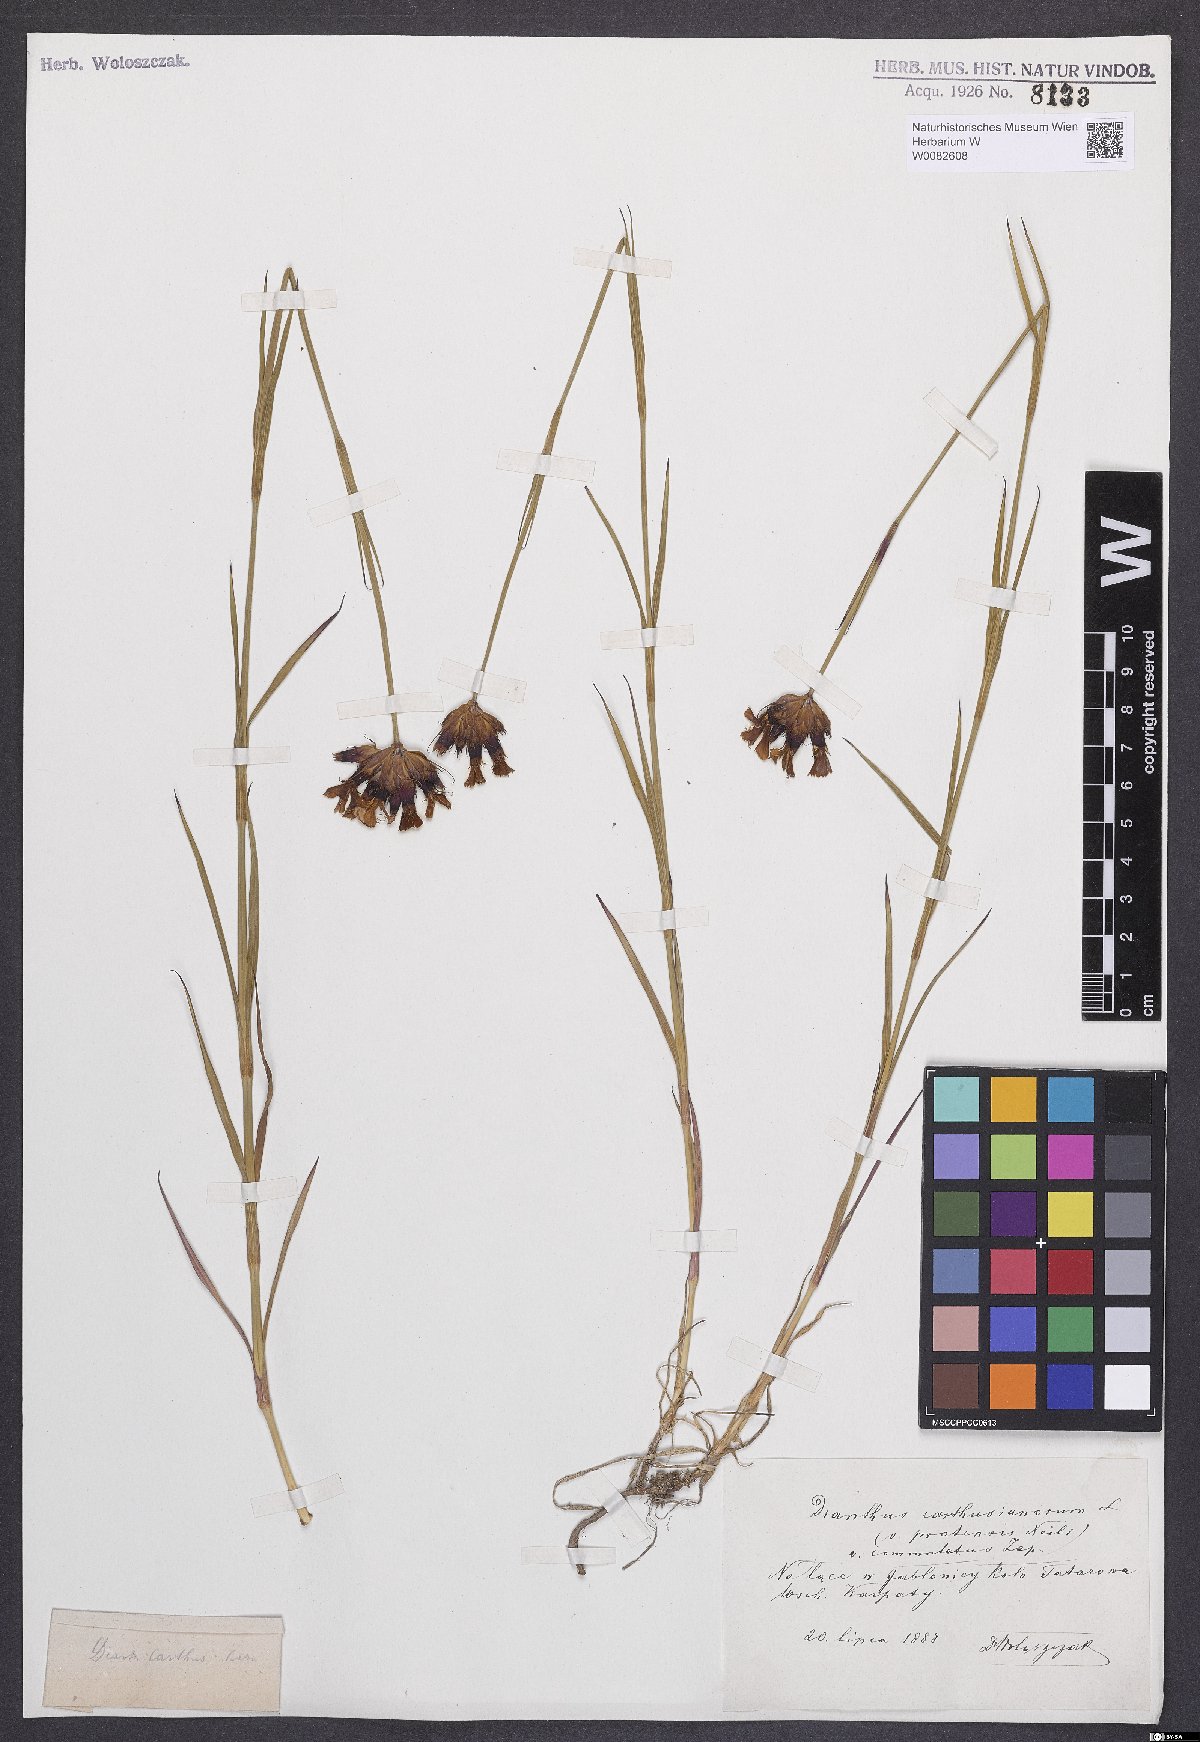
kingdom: Plantae
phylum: Tracheophyta
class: Magnoliopsida
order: Caryophyllales
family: Caryophyllaceae
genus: Dianthus
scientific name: Dianthus carthusianorum
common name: Carthusian pink
